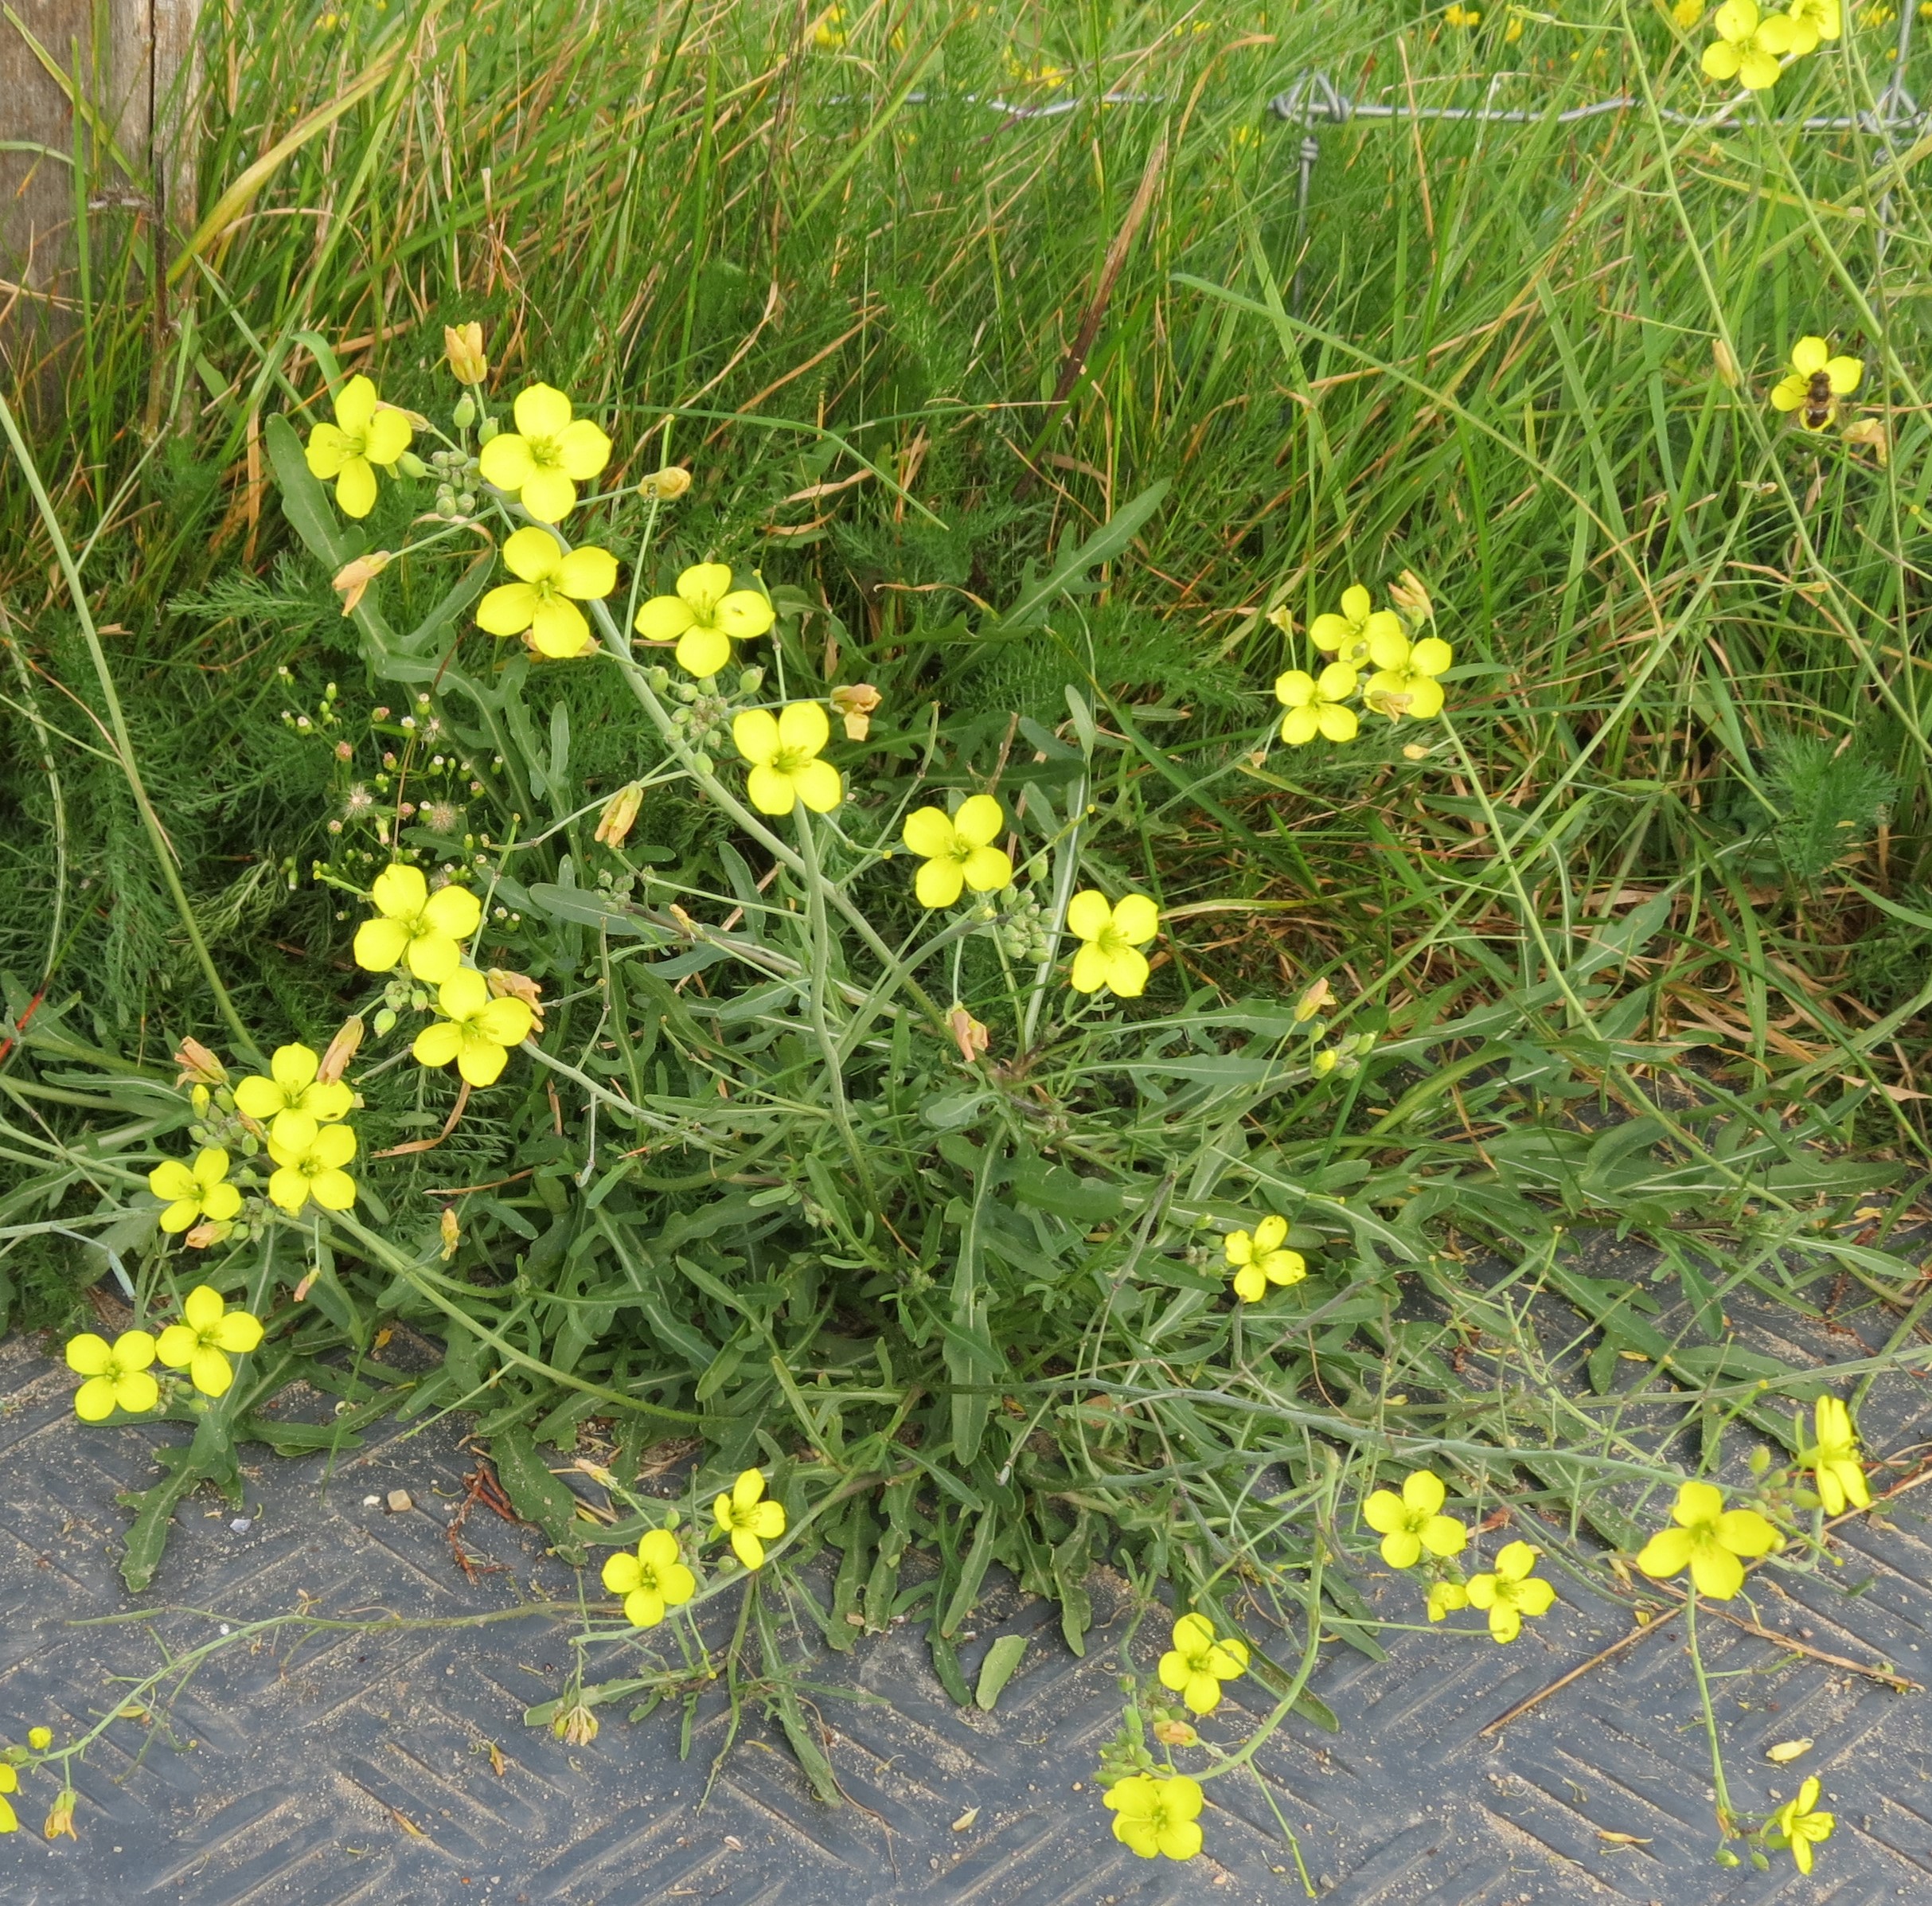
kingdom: Plantae
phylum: Tracheophyta
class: Magnoliopsida
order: Brassicales
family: Brassicaceae
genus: Diplotaxis
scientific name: Diplotaxis tenuifolia
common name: Sandsennep
